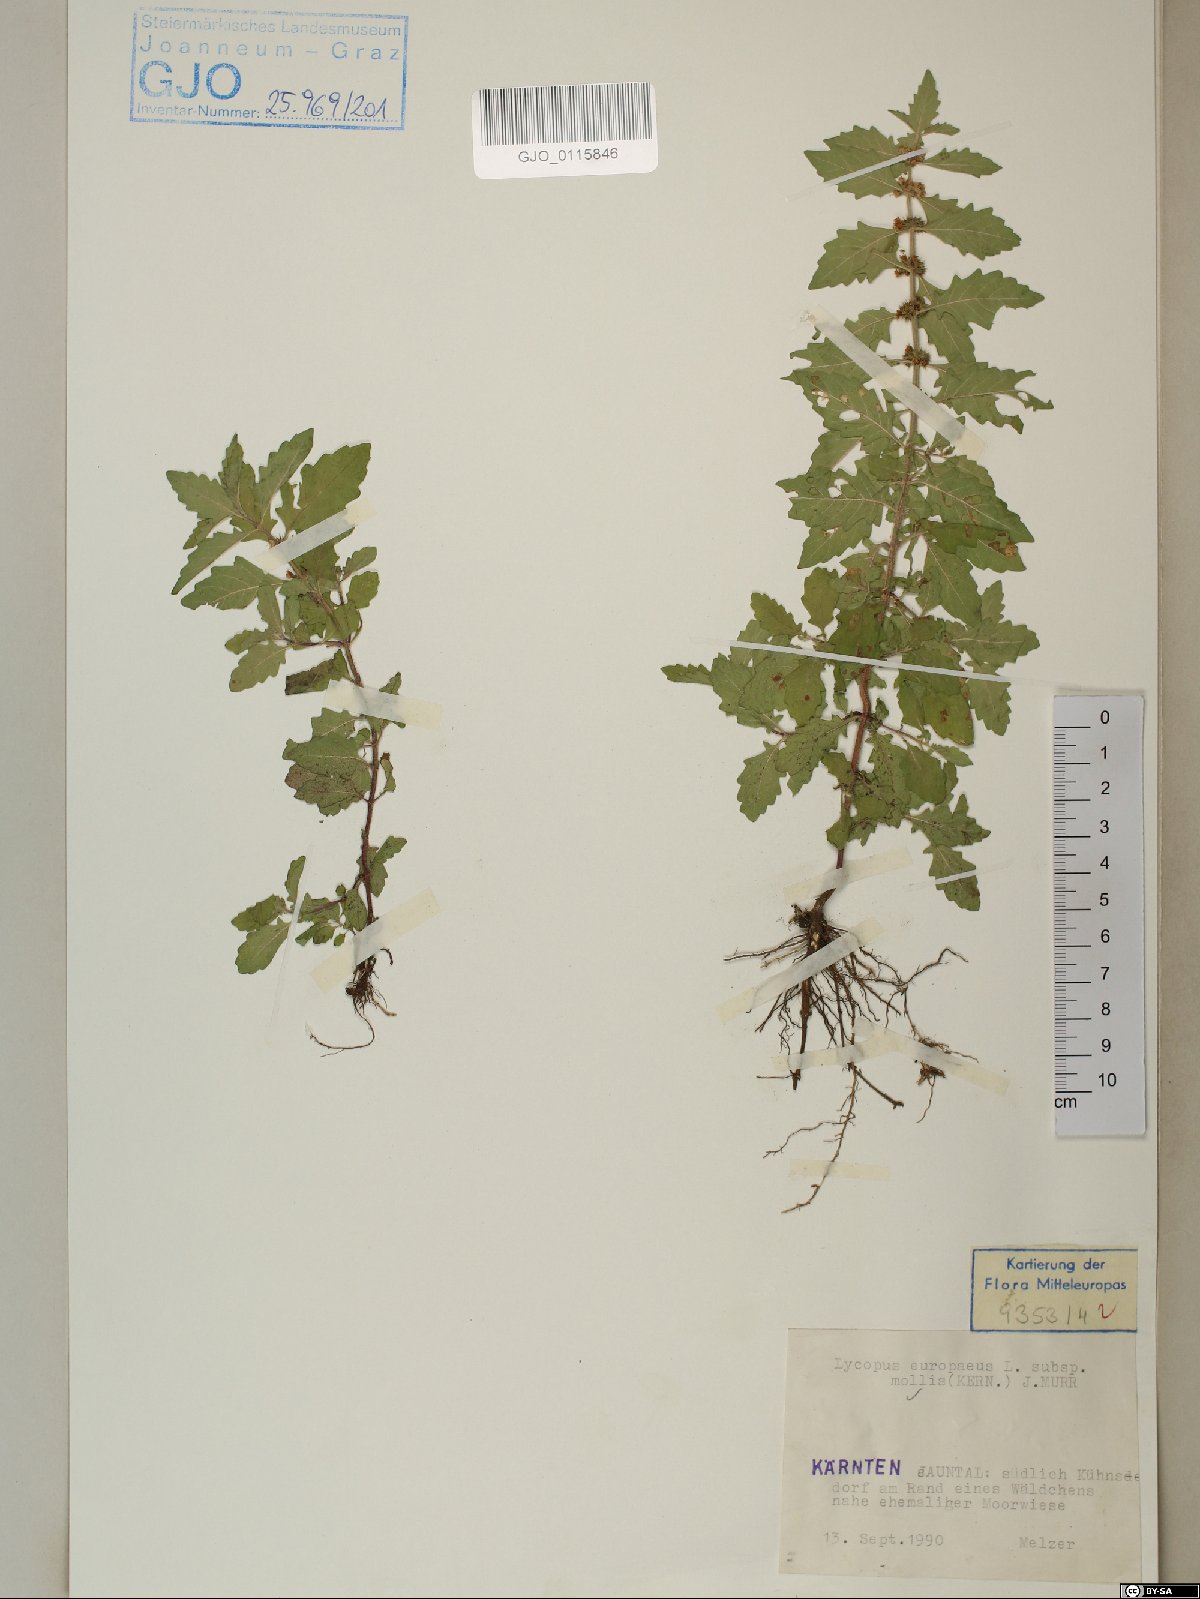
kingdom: Plantae
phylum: Tracheophyta
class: Magnoliopsida
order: Lamiales
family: Lamiaceae
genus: Lycopus
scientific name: Lycopus europaeus
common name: European bugleweed
